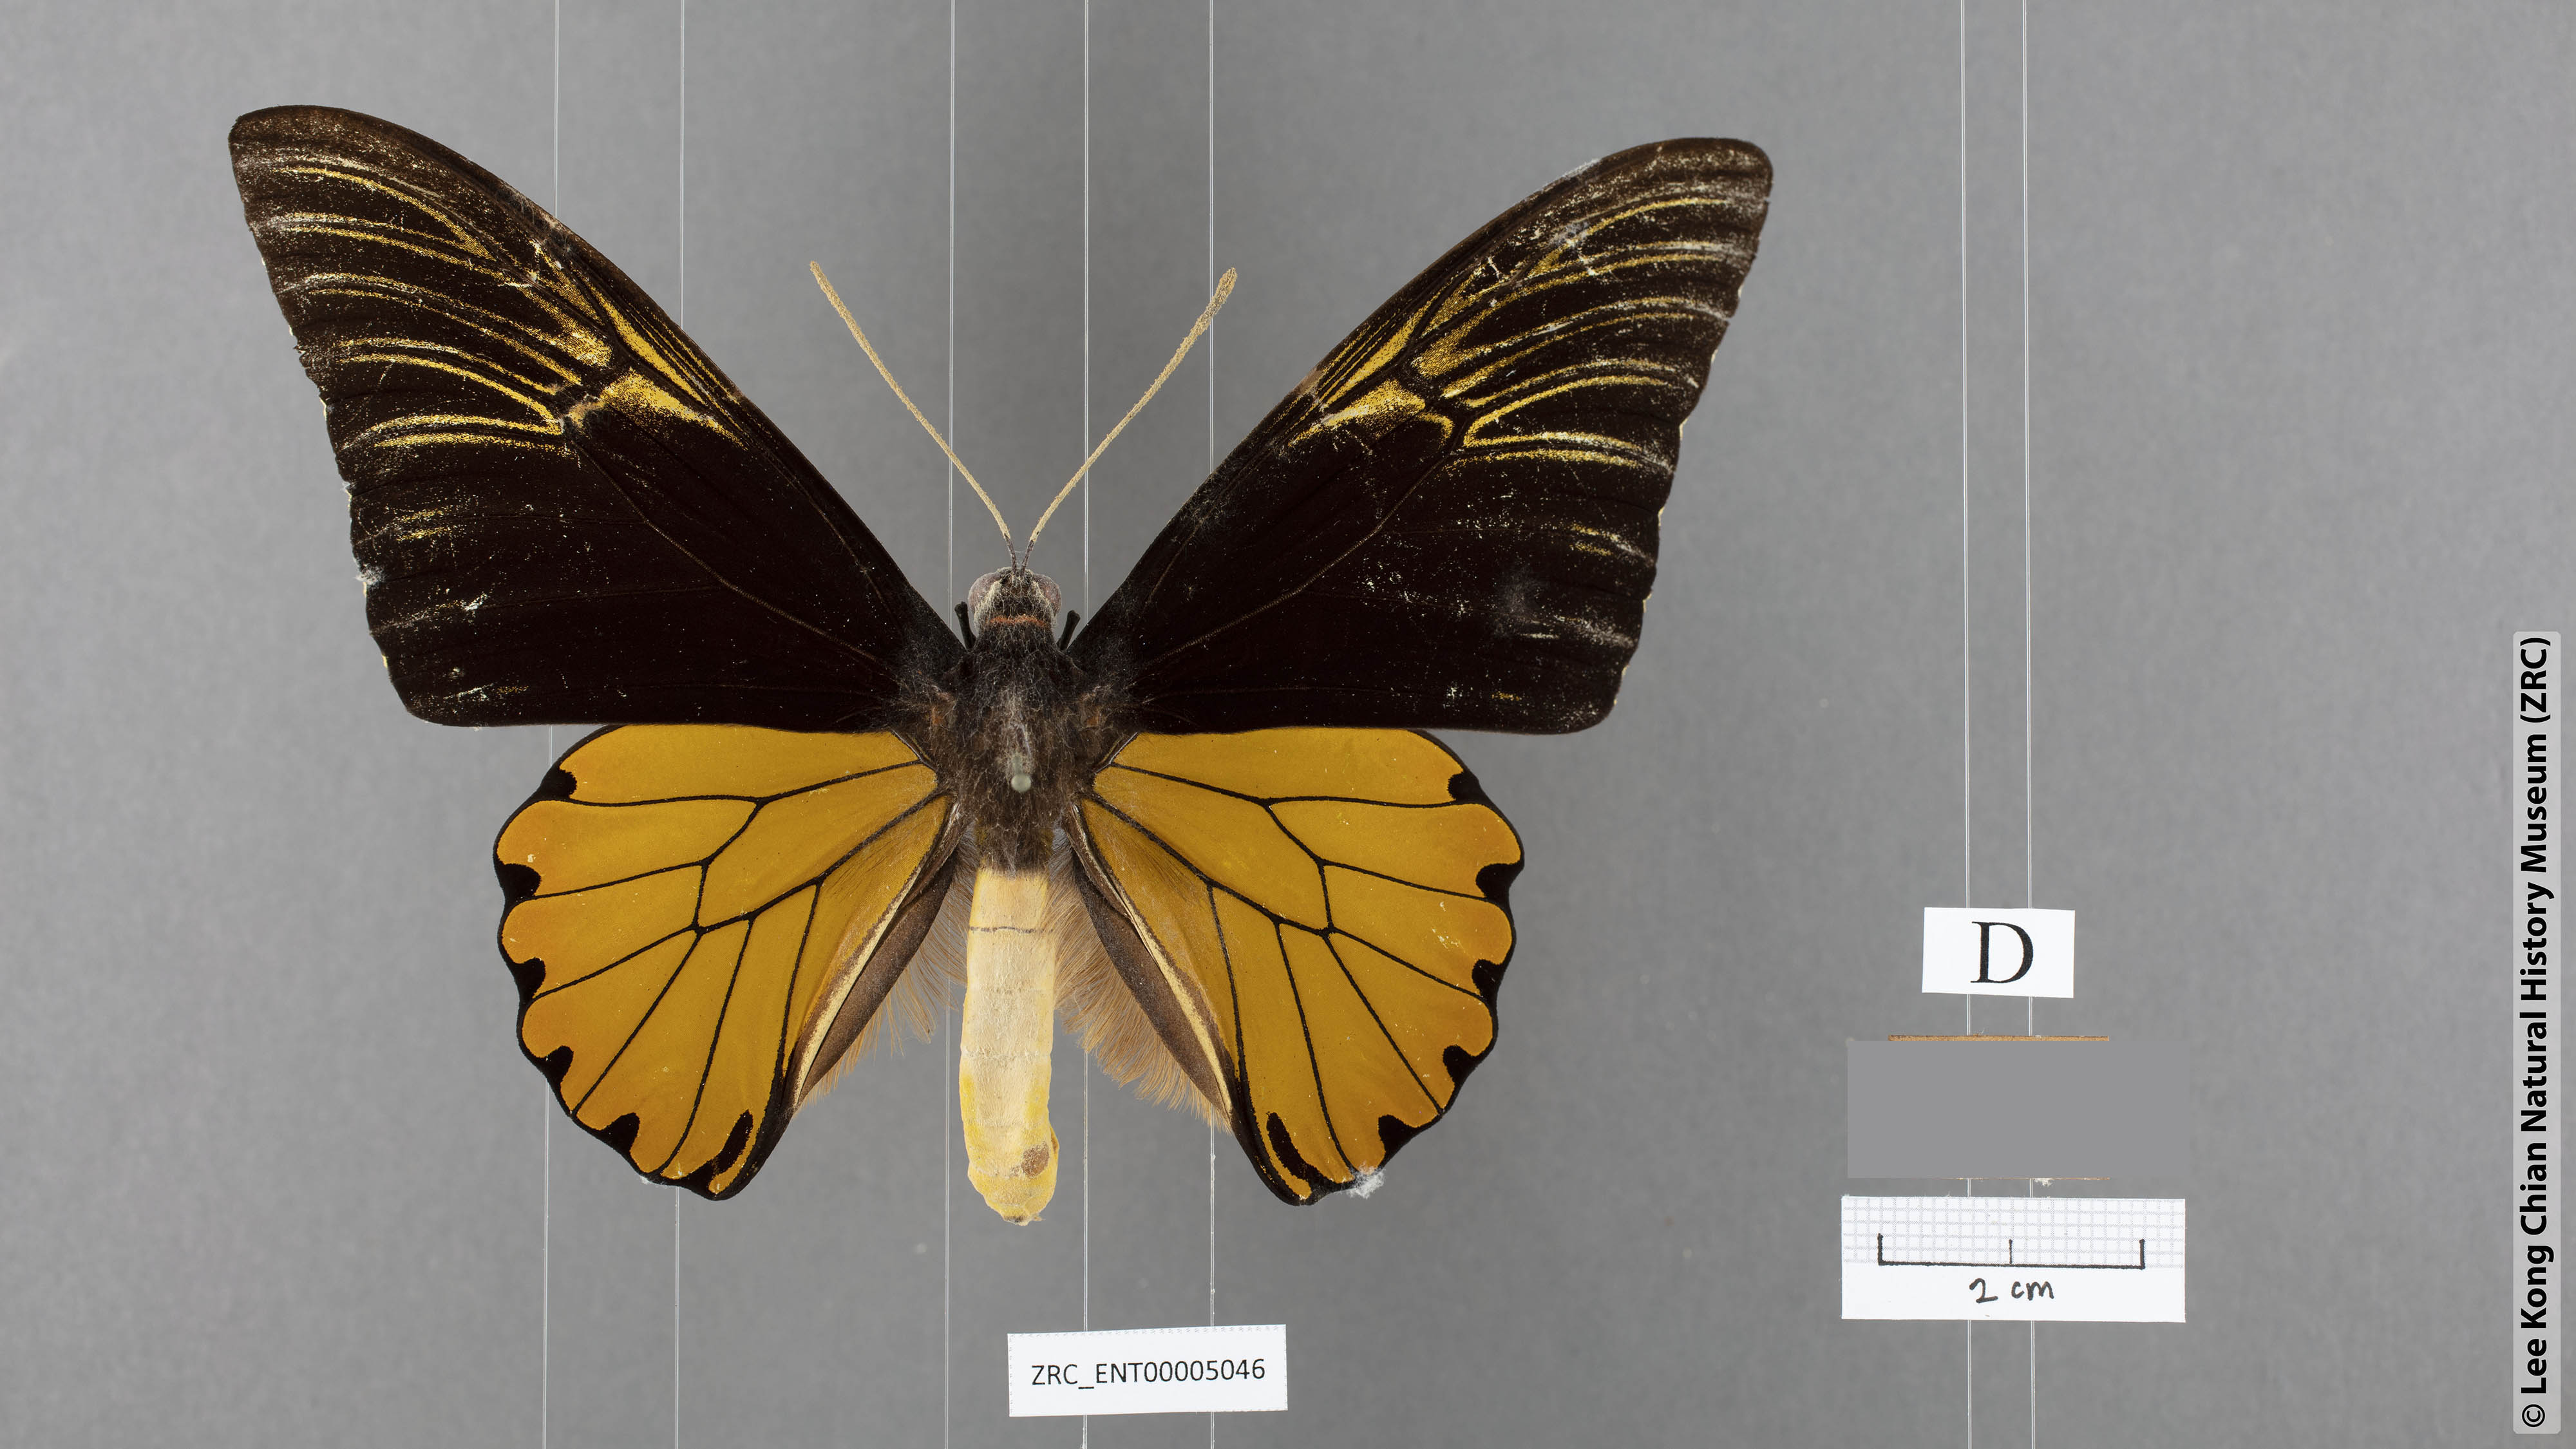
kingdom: Animalia
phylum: Arthropoda
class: Insecta
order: Lepidoptera
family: Papilionidae
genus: Troides
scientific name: Troides amphyrus
